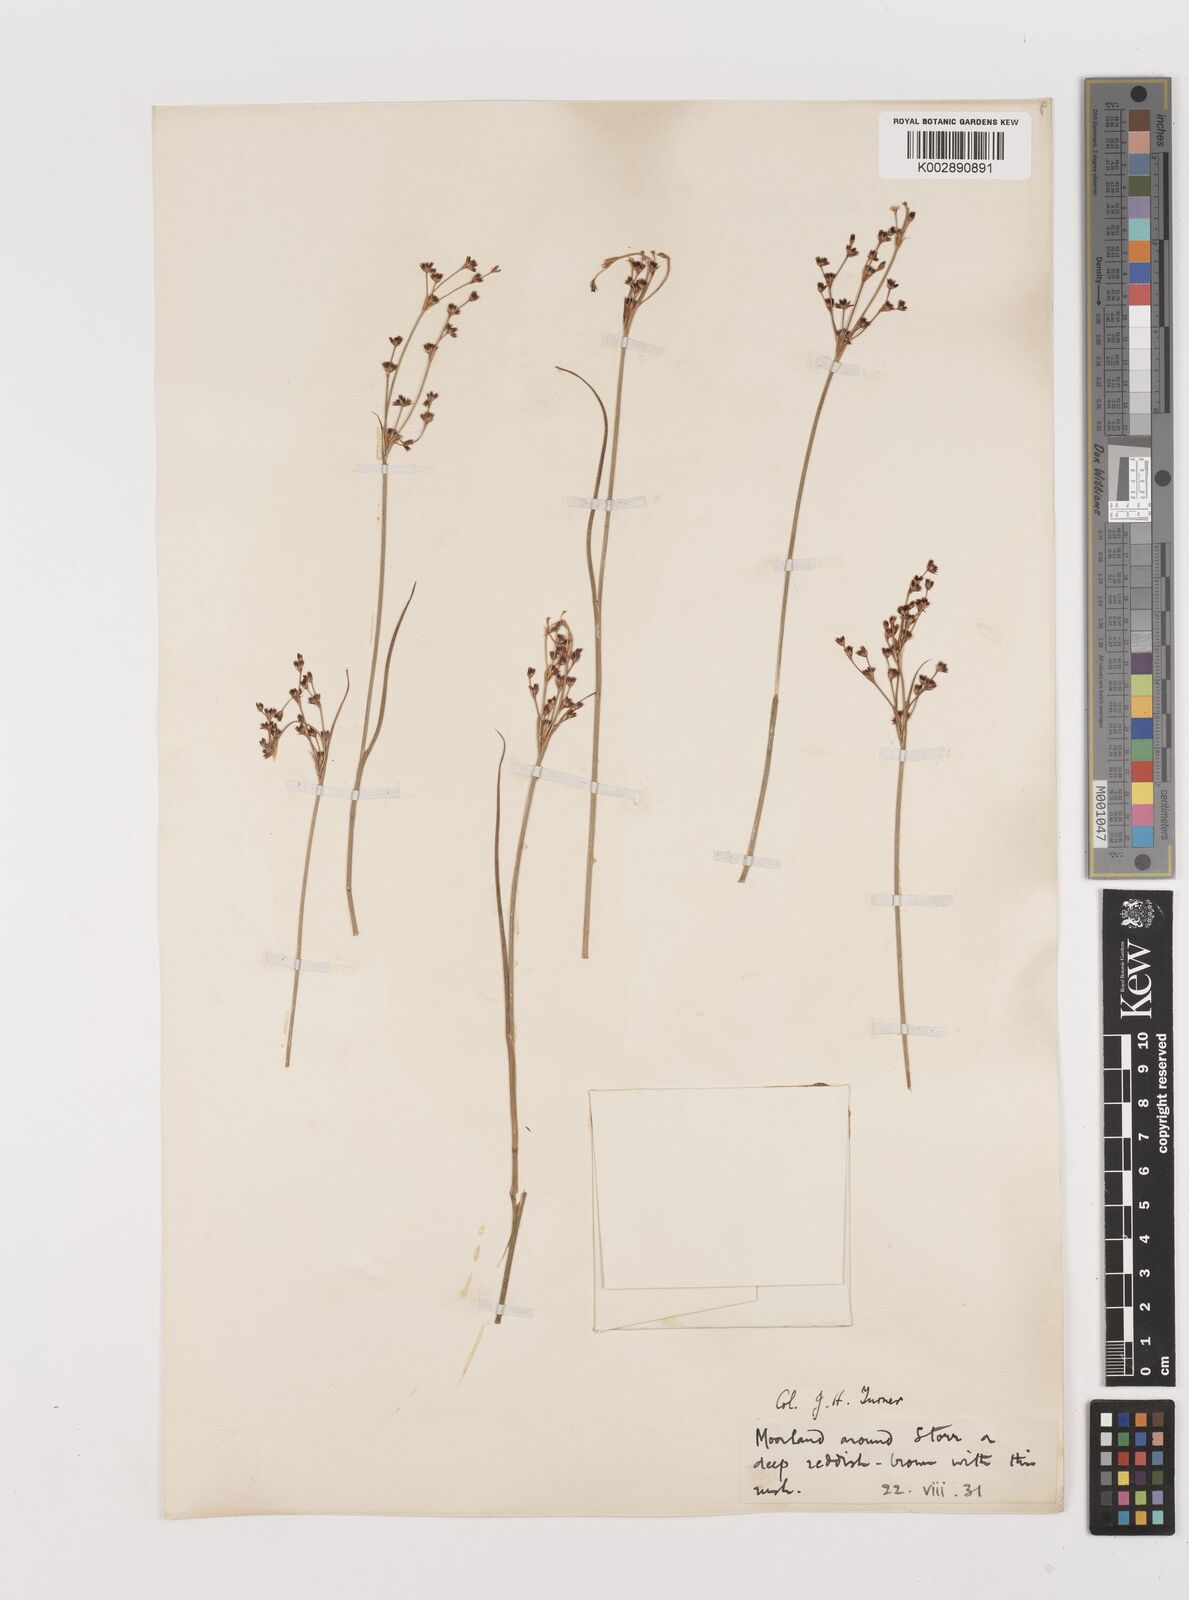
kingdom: Plantae
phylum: Tracheophyta
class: Liliopsida
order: Poales
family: Juncaceae
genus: Juncus
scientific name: Juncus
